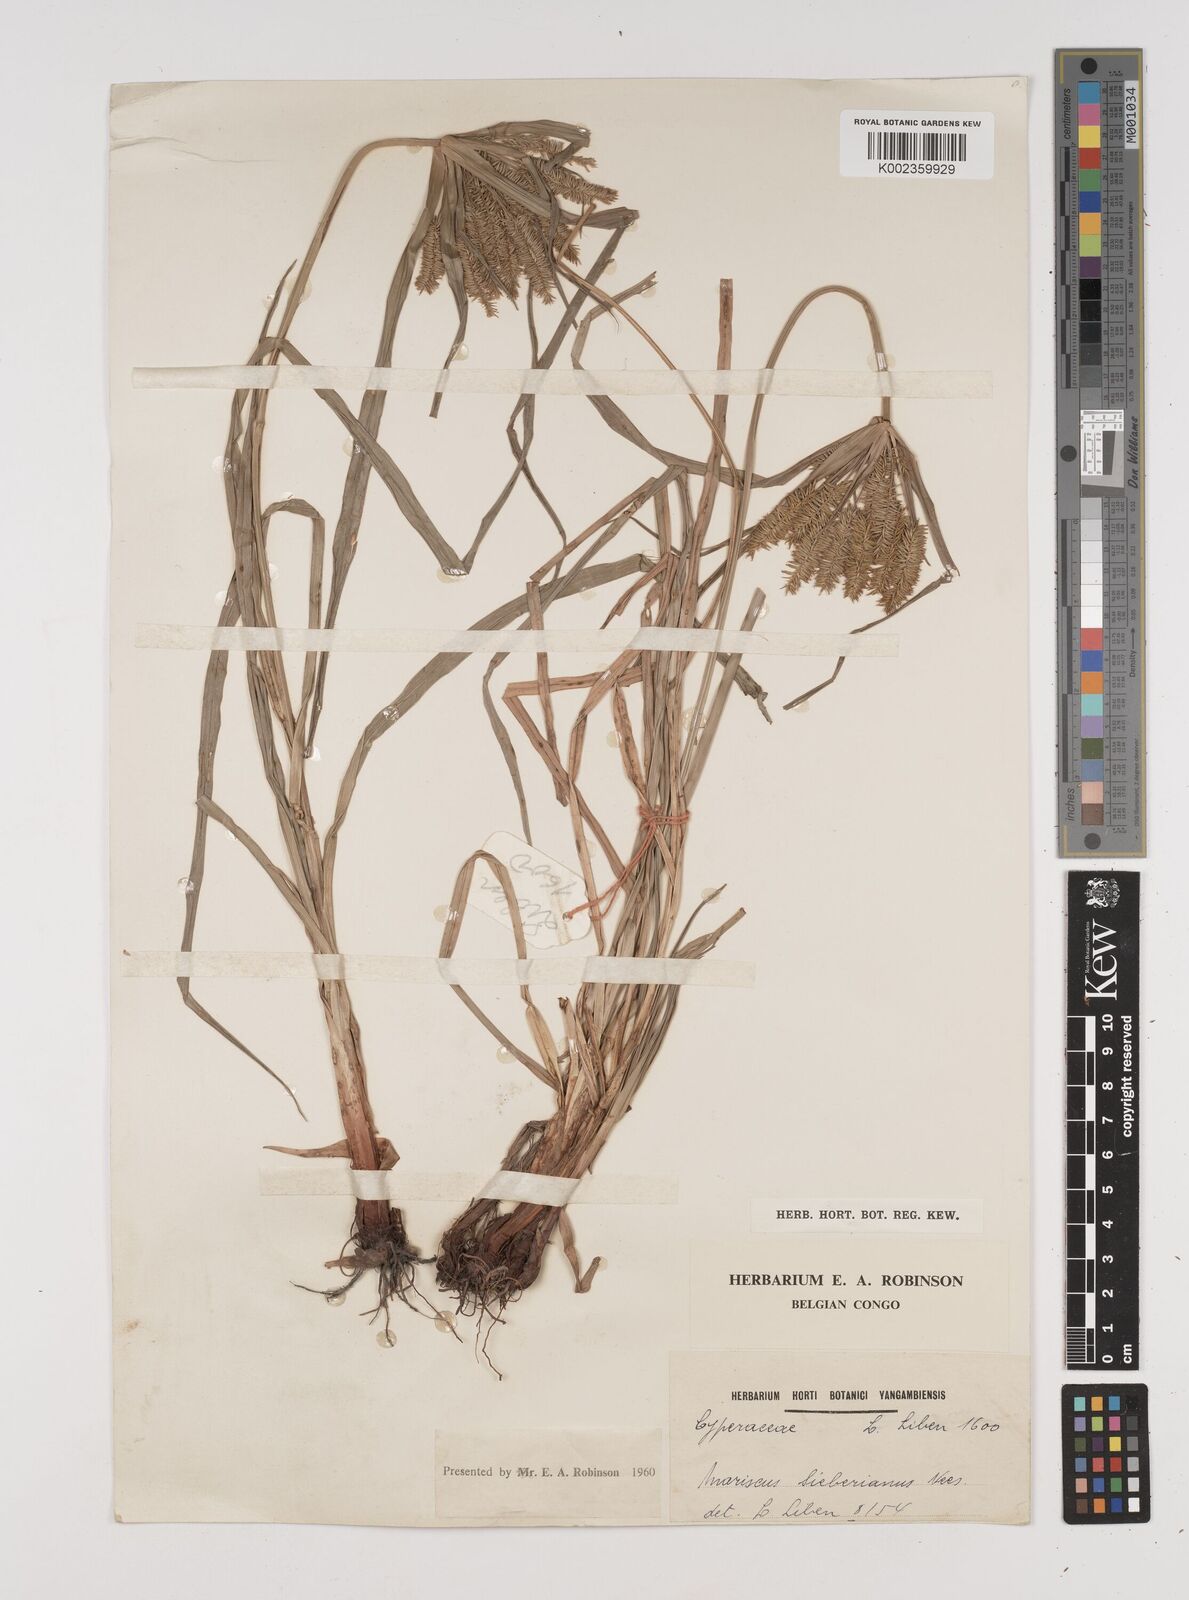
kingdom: Plantae
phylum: Tracheophyta
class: Liliopsida
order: Poales
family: Cyperaceae
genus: Cyperus
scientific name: Cyperus cyperoides
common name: Pacific island flat sedge
